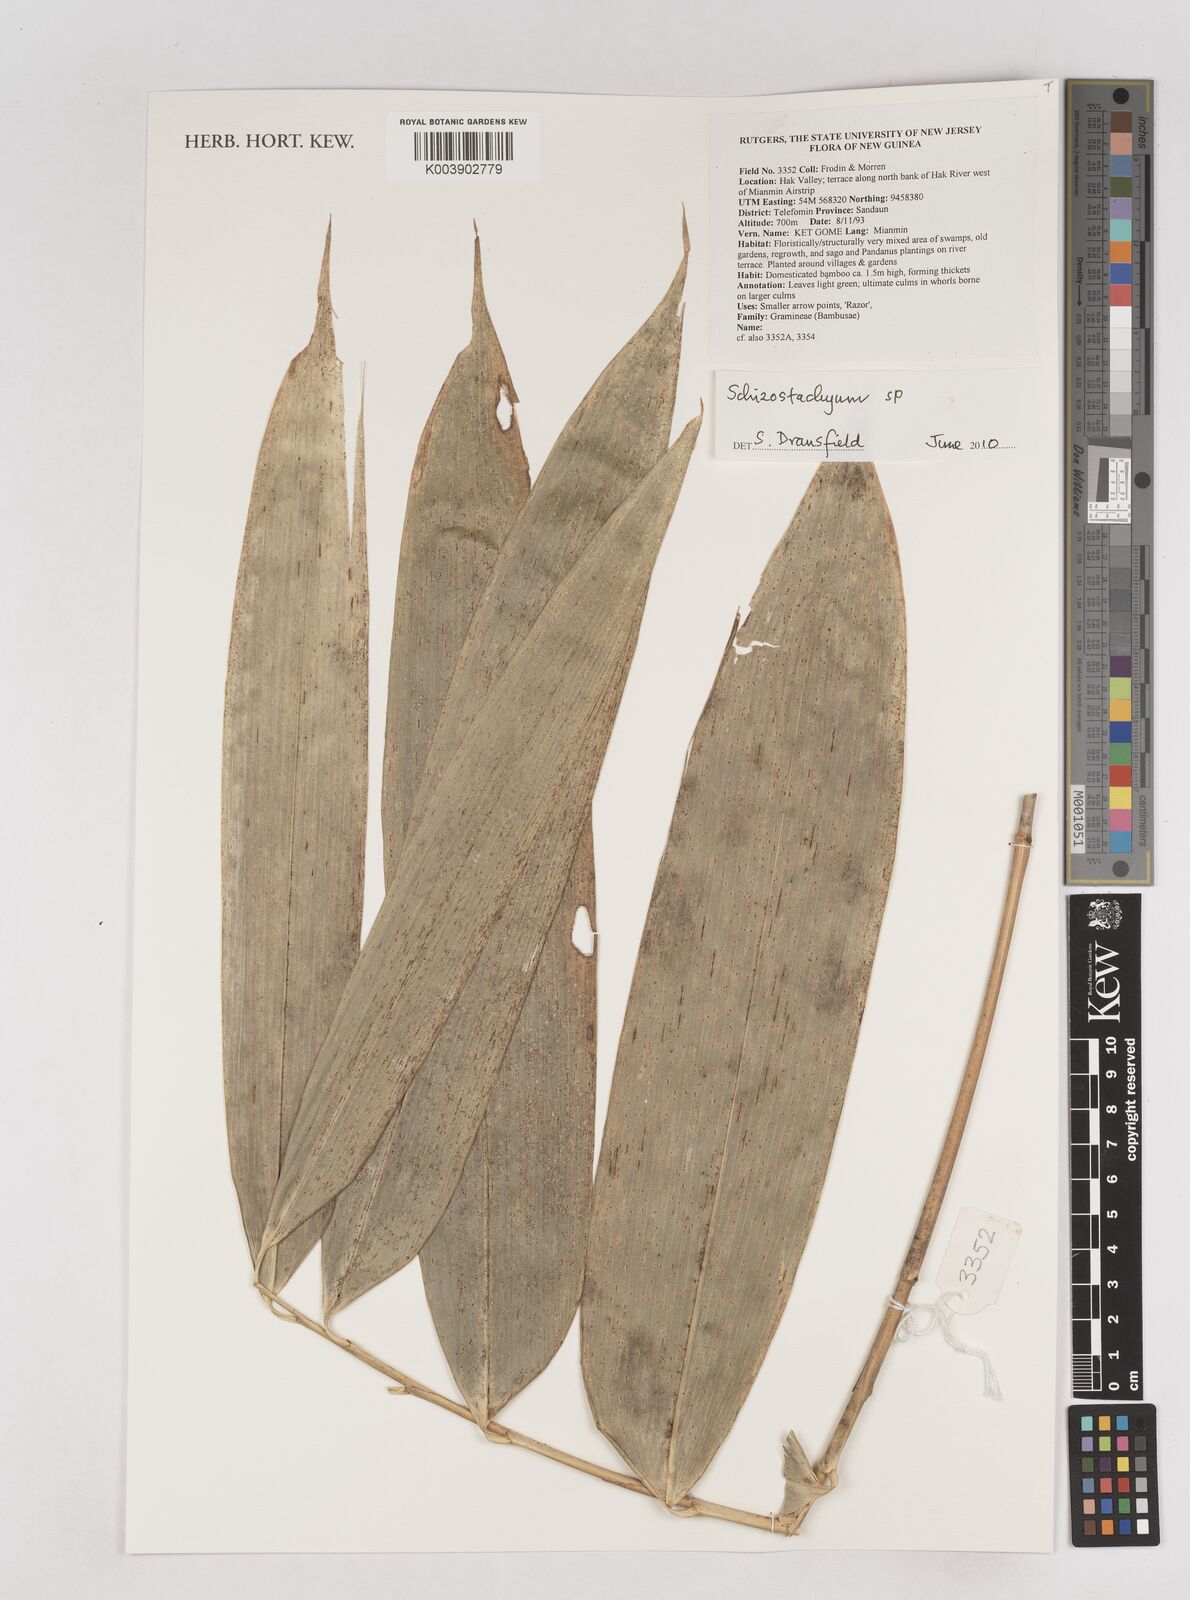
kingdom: Plantae
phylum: Tracheophyta
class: Liliopsida
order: Poales
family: Poaceae
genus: Schizostachyum
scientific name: Schizostachyum
